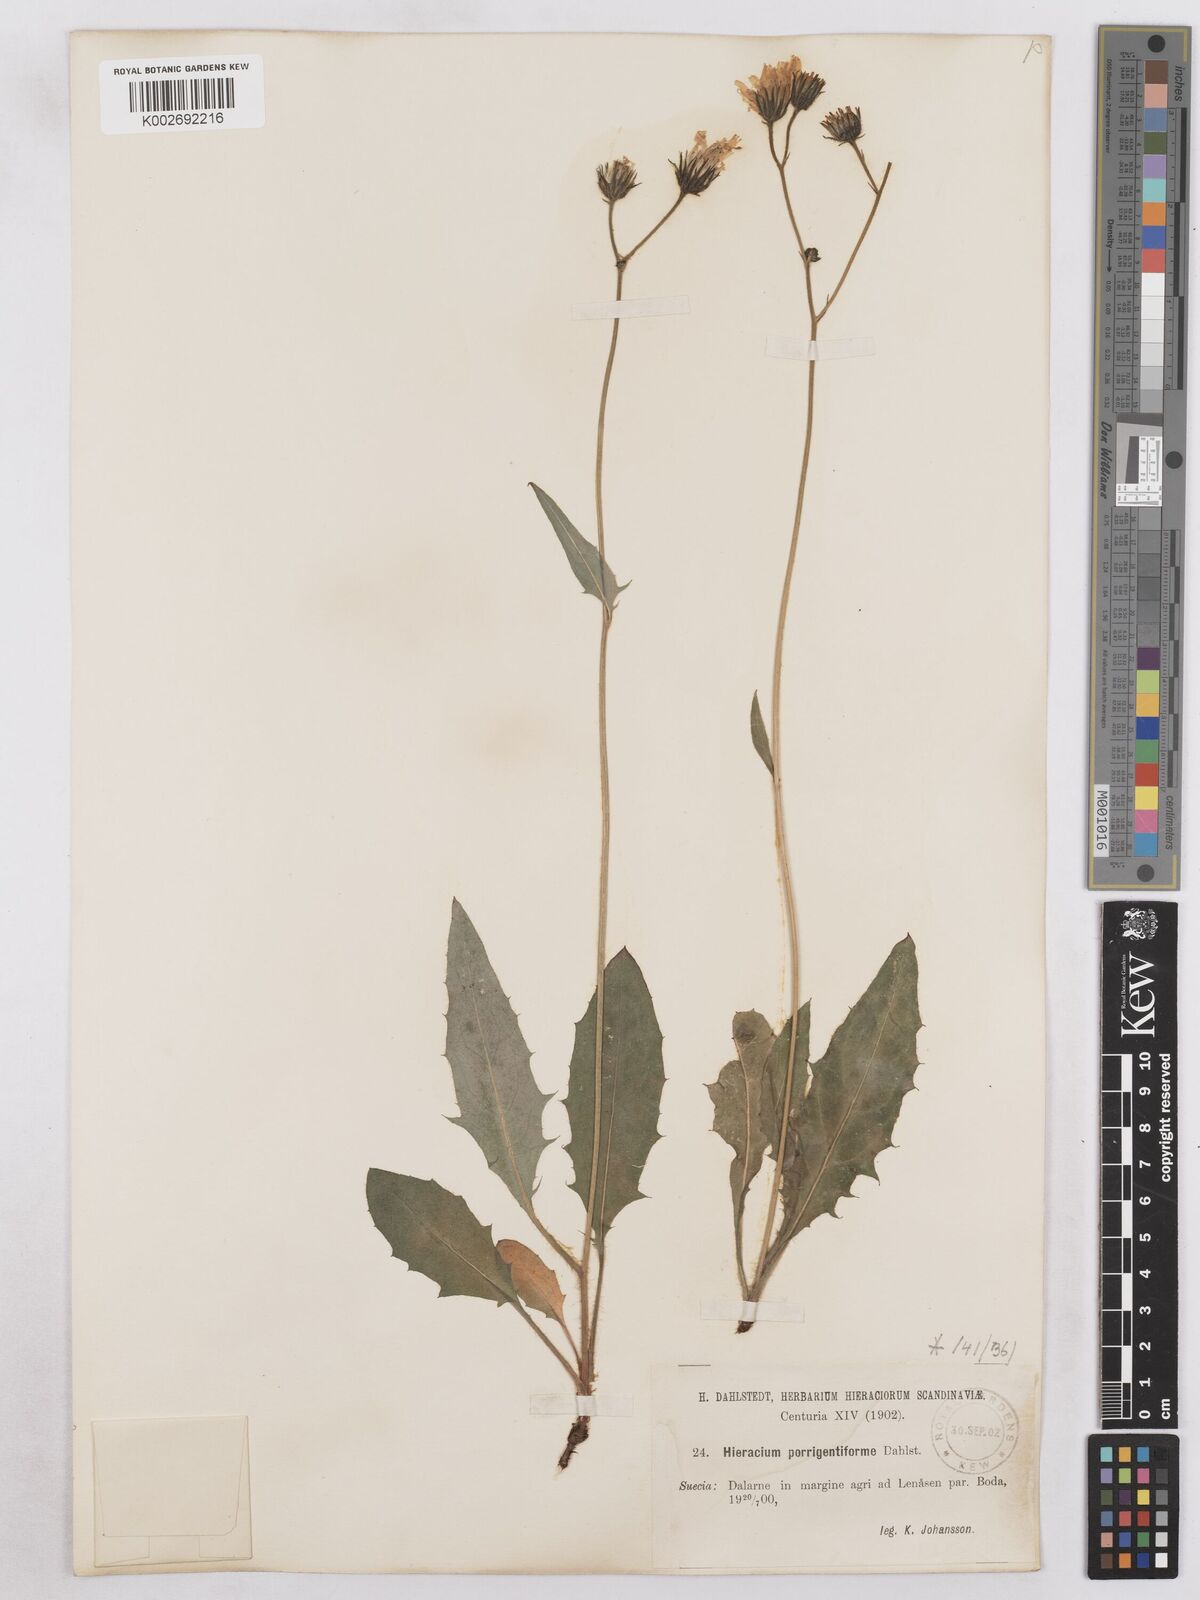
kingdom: Plantae
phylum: Tracheophyta
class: Magnoliopsida
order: Asterales
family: Asteraceae
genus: Hieracium
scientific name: Hieracium diaphanoides
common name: Fine-bracted hawkweed
